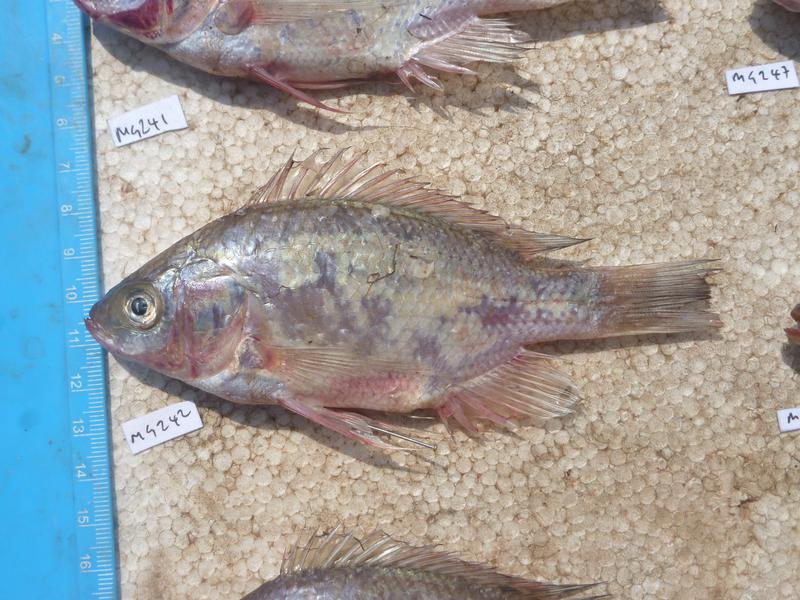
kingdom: Animalia
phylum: Chordata
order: Perciformes
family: Cichlidae
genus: Oreochromis
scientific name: Oreochromis esculentus
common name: Carp
